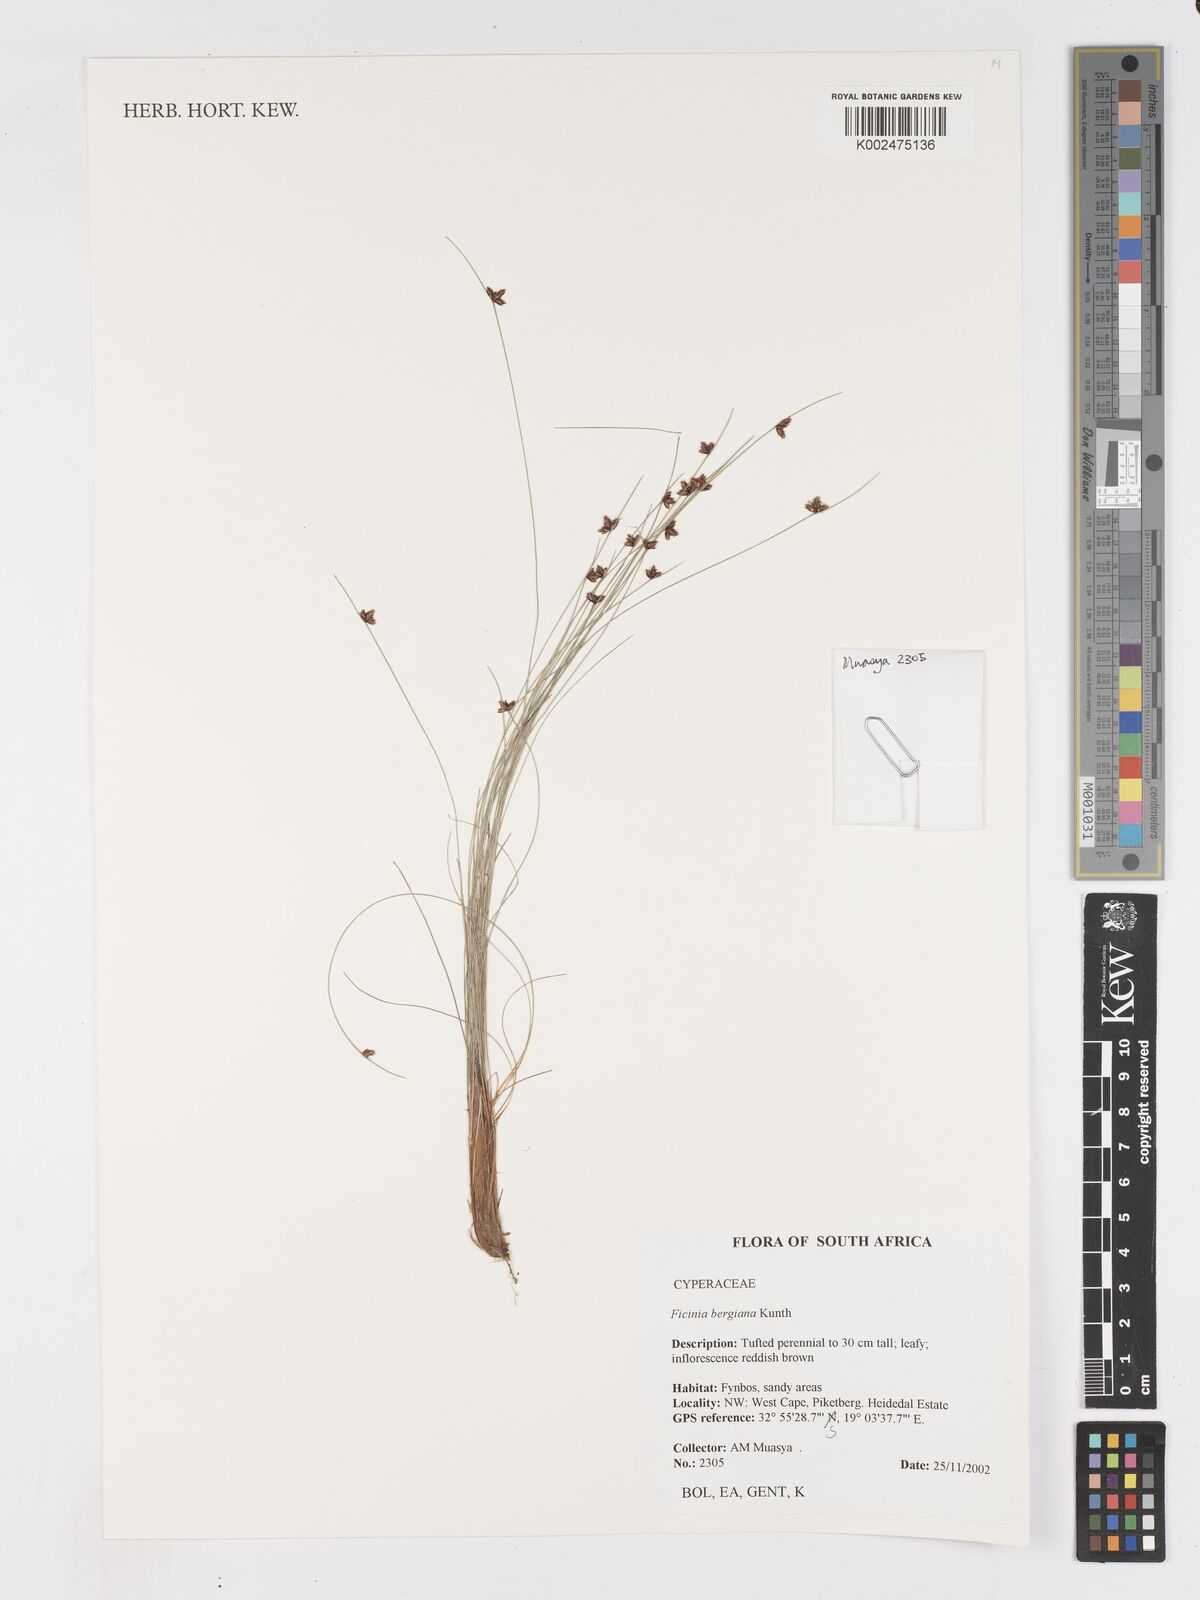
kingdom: Plantae
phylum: Tracheophyta
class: Liliopsida
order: Poales
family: Cyperaceae
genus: Ficinia
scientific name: Ficinia tristachya
